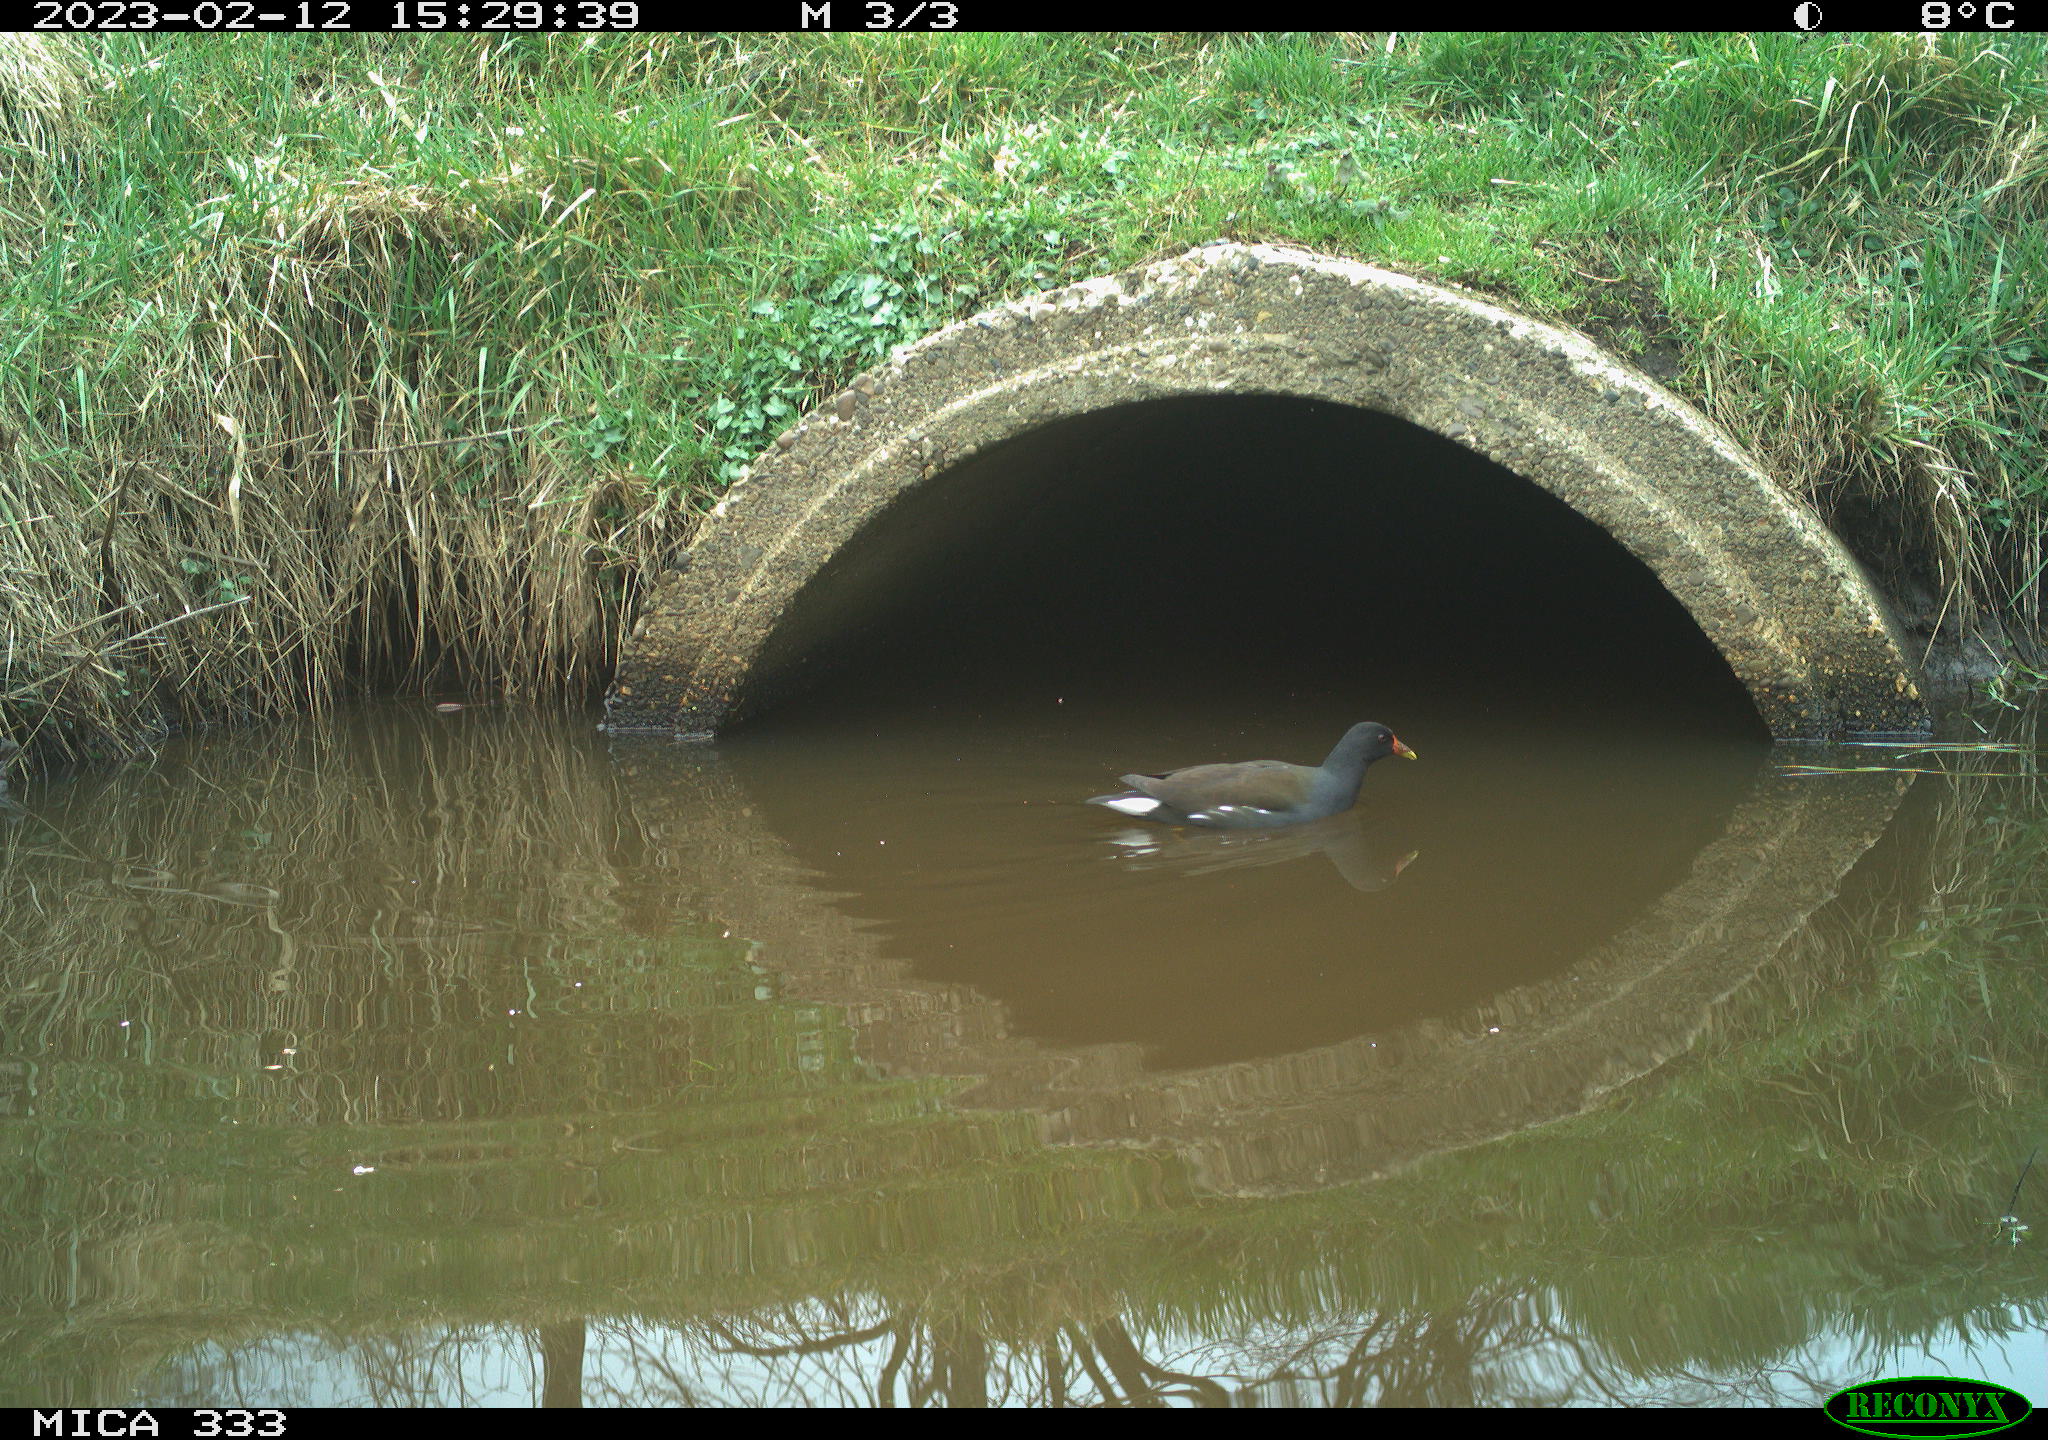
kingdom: Animalia
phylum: Chordata
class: Aves
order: Gruiformes
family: Rallidae
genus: Gallinula
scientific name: Gallinula chloropus
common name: Common moorhen
